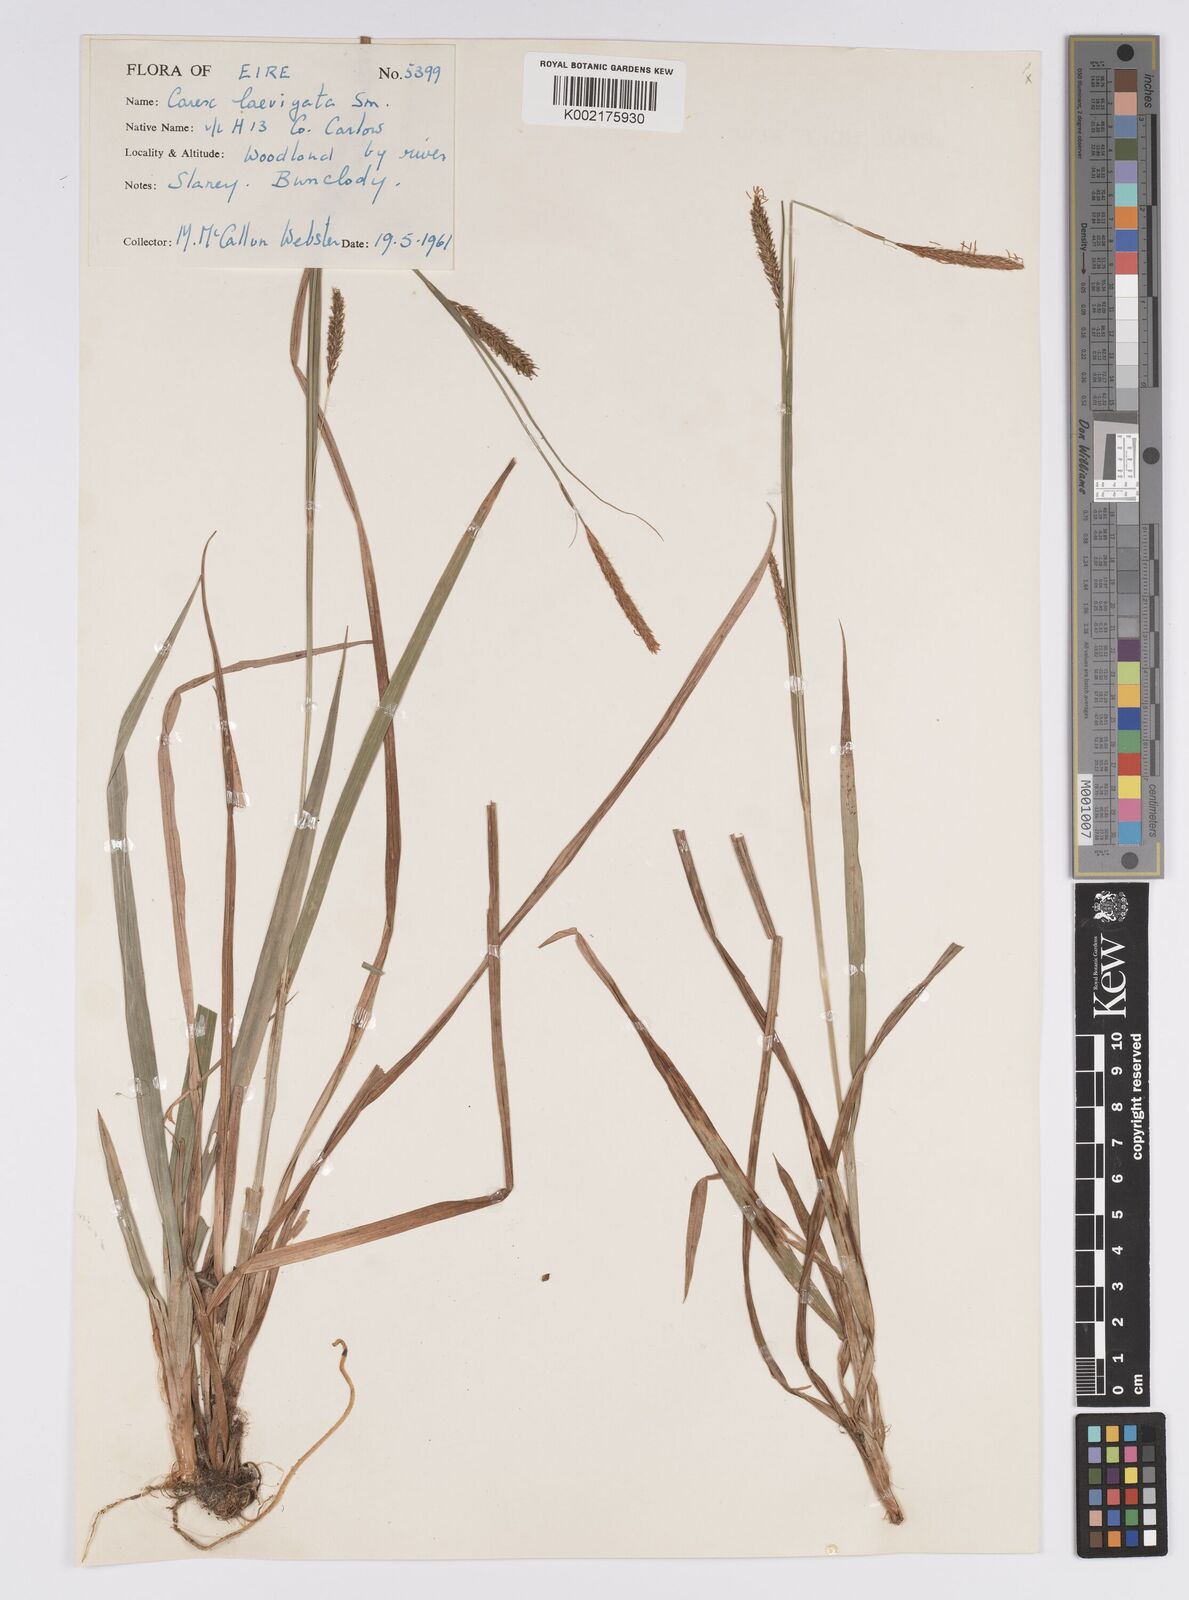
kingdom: Plantae
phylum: Tracheophyta
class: Liliopsida
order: Poales
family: Cyperaceae
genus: Carex
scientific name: Carex laevigata
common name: Smooth-stalked sedge
